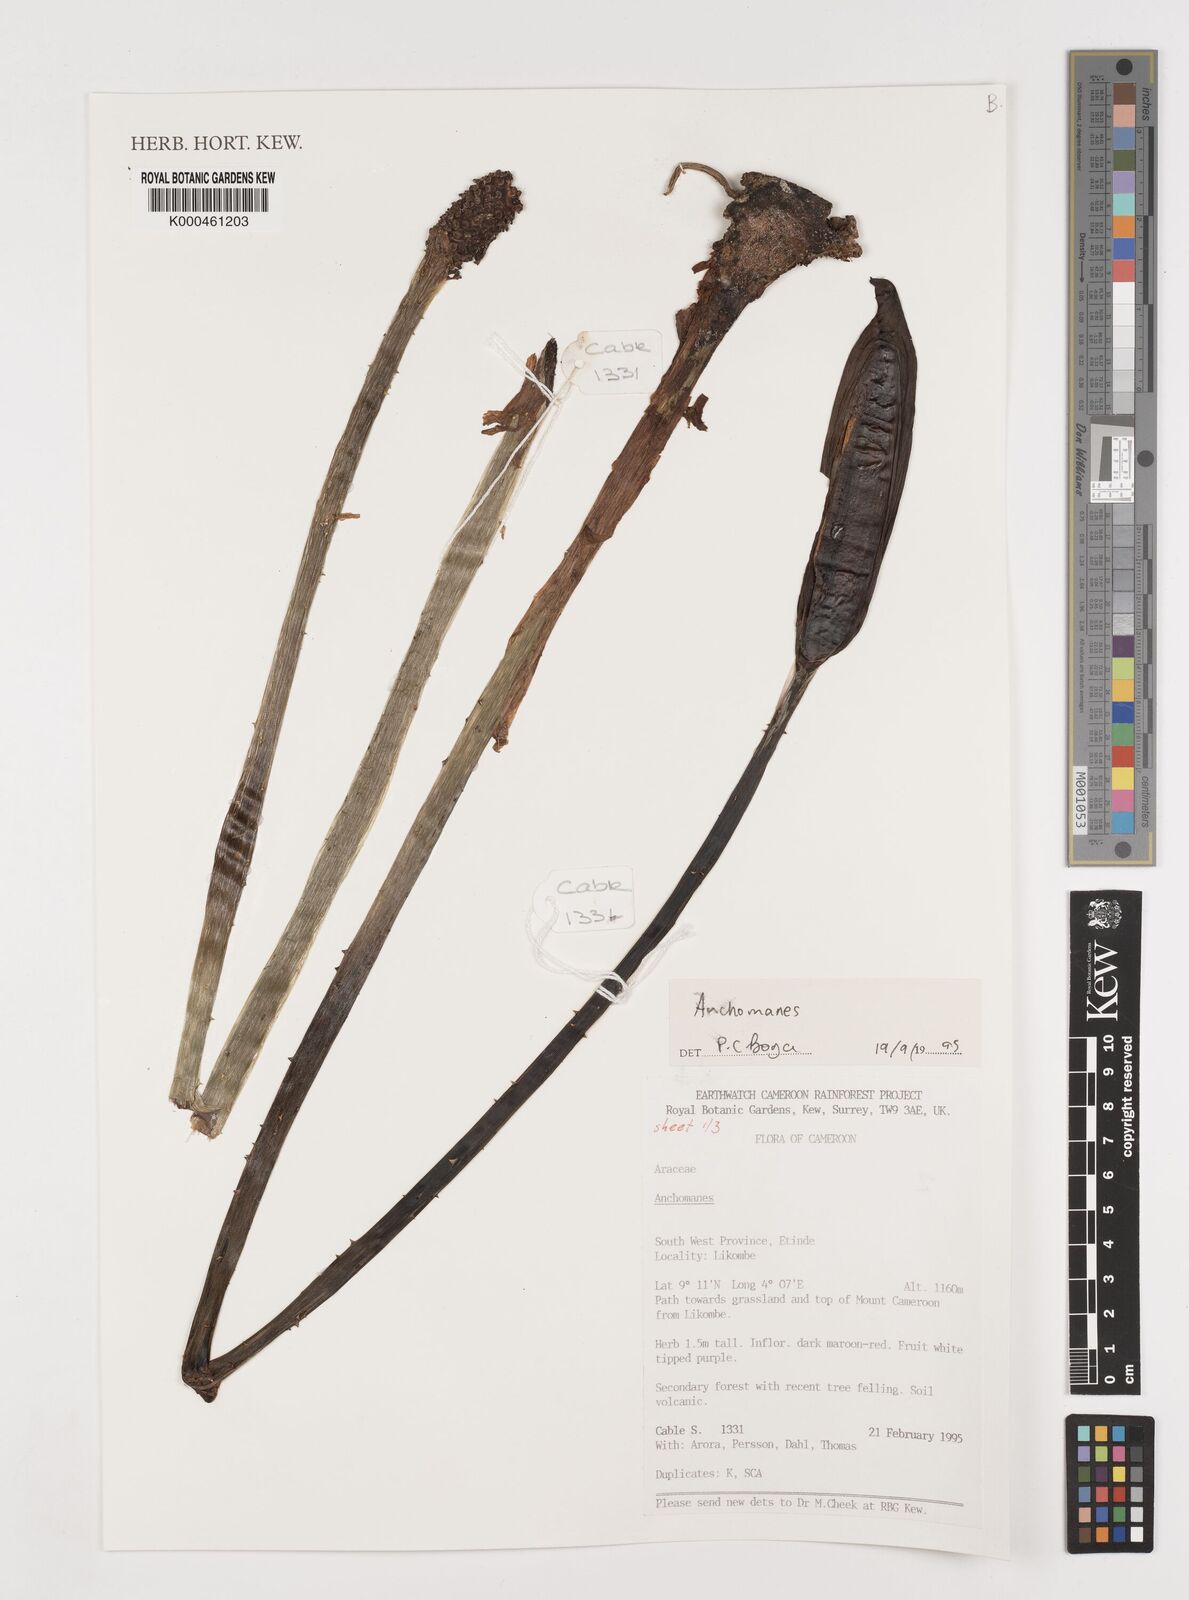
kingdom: Plantae
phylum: Tracheophyta
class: Liliopsida
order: Alismatales
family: Araceae
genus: Anchomanes
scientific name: Anchomanes
